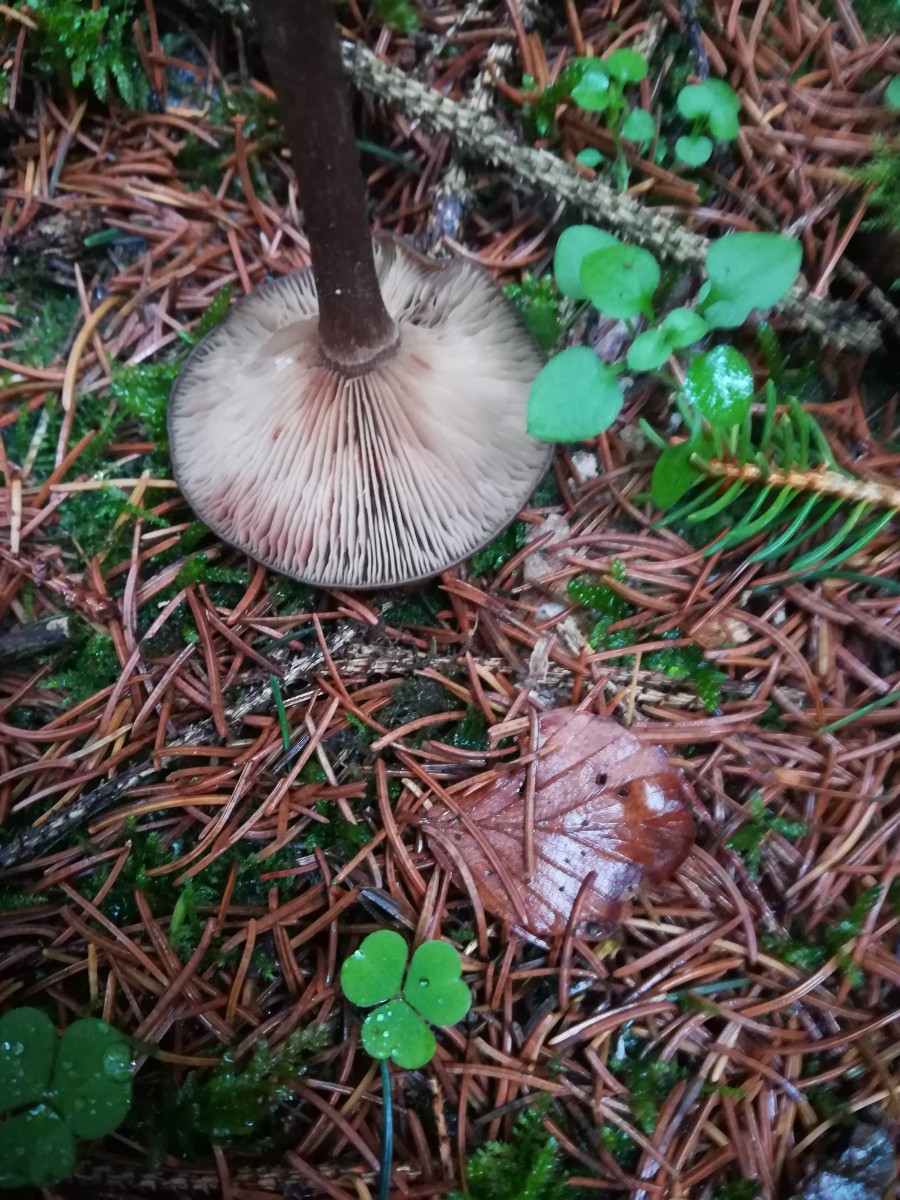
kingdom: Fungi
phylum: Basidiomycota
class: Agaricomycetes
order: Agaricales
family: Pseudoclitocybaceae
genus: Pseudoclitocybe
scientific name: Pseudoclitocybe cyathiformis
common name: almindelig bægertragthat
